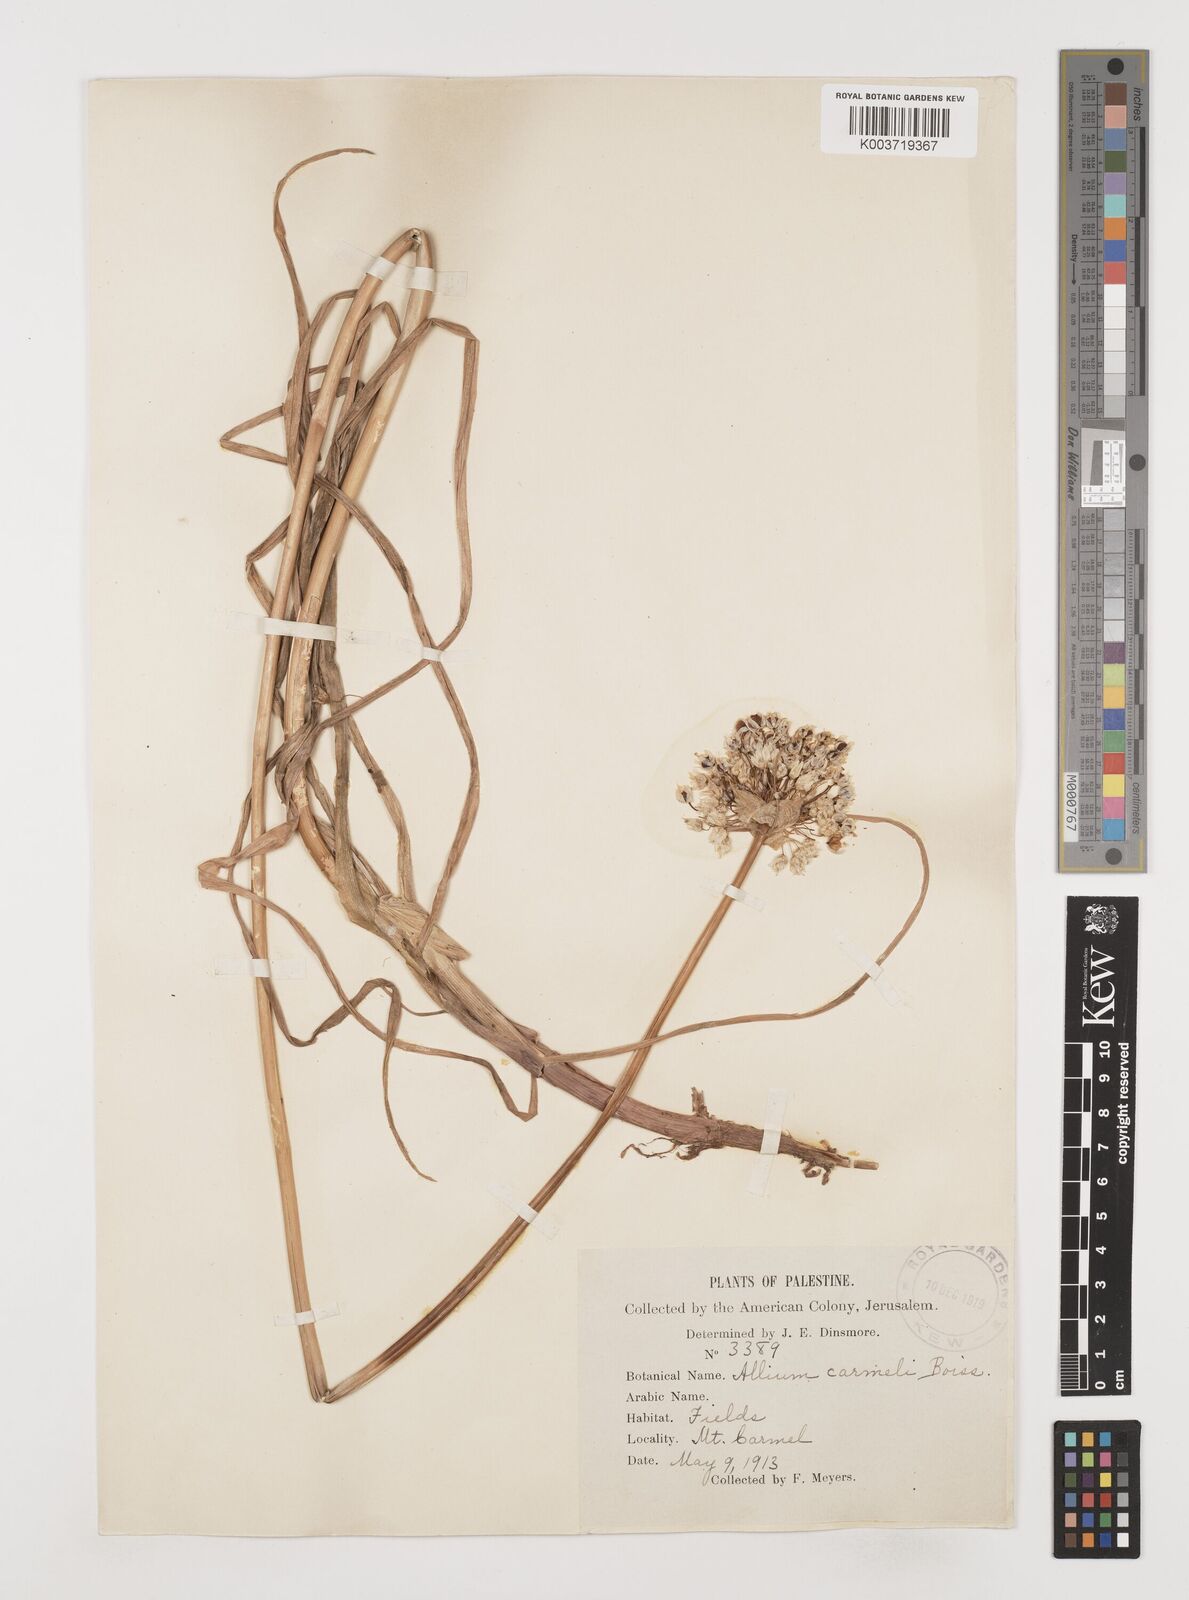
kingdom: Plantae
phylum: Tracheophyta
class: Liliopsida
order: Asparagales
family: Amaryllidaceae
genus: Allium
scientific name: Allium carmeli
